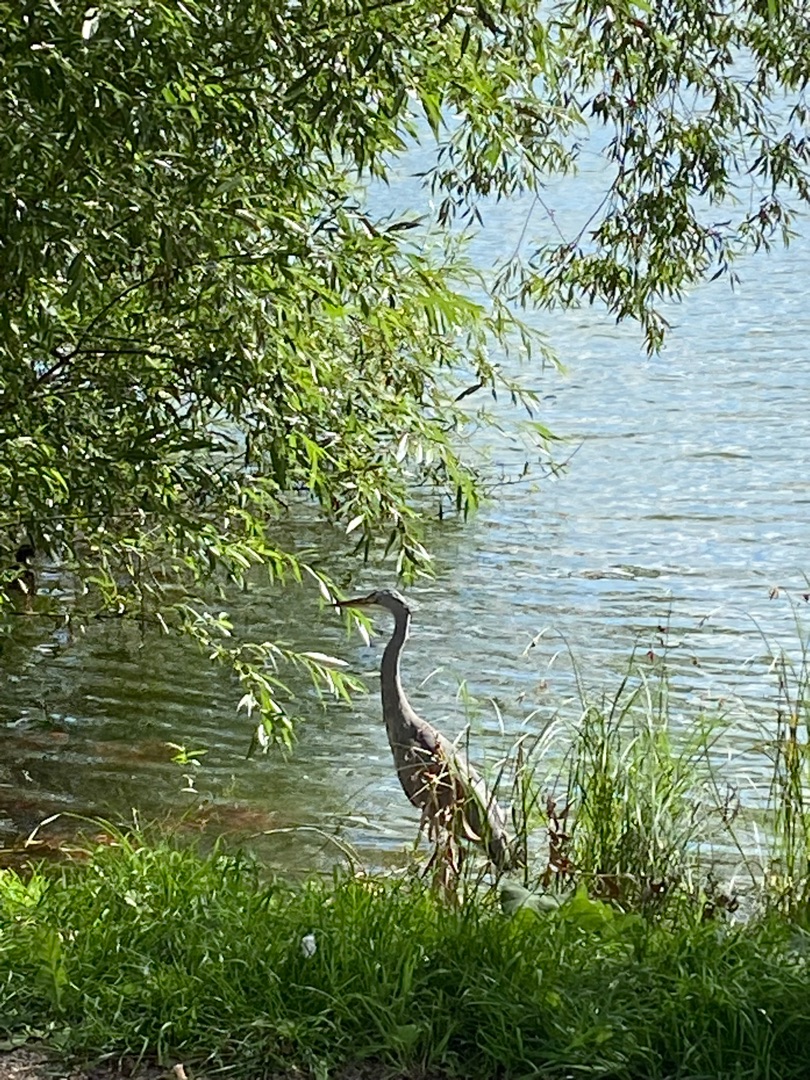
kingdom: Animalia
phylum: Chordata
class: Aves
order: Pelecaniformes
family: Ardeidae
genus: Ardea
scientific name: Ardea cinerea
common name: Fiskehejre
